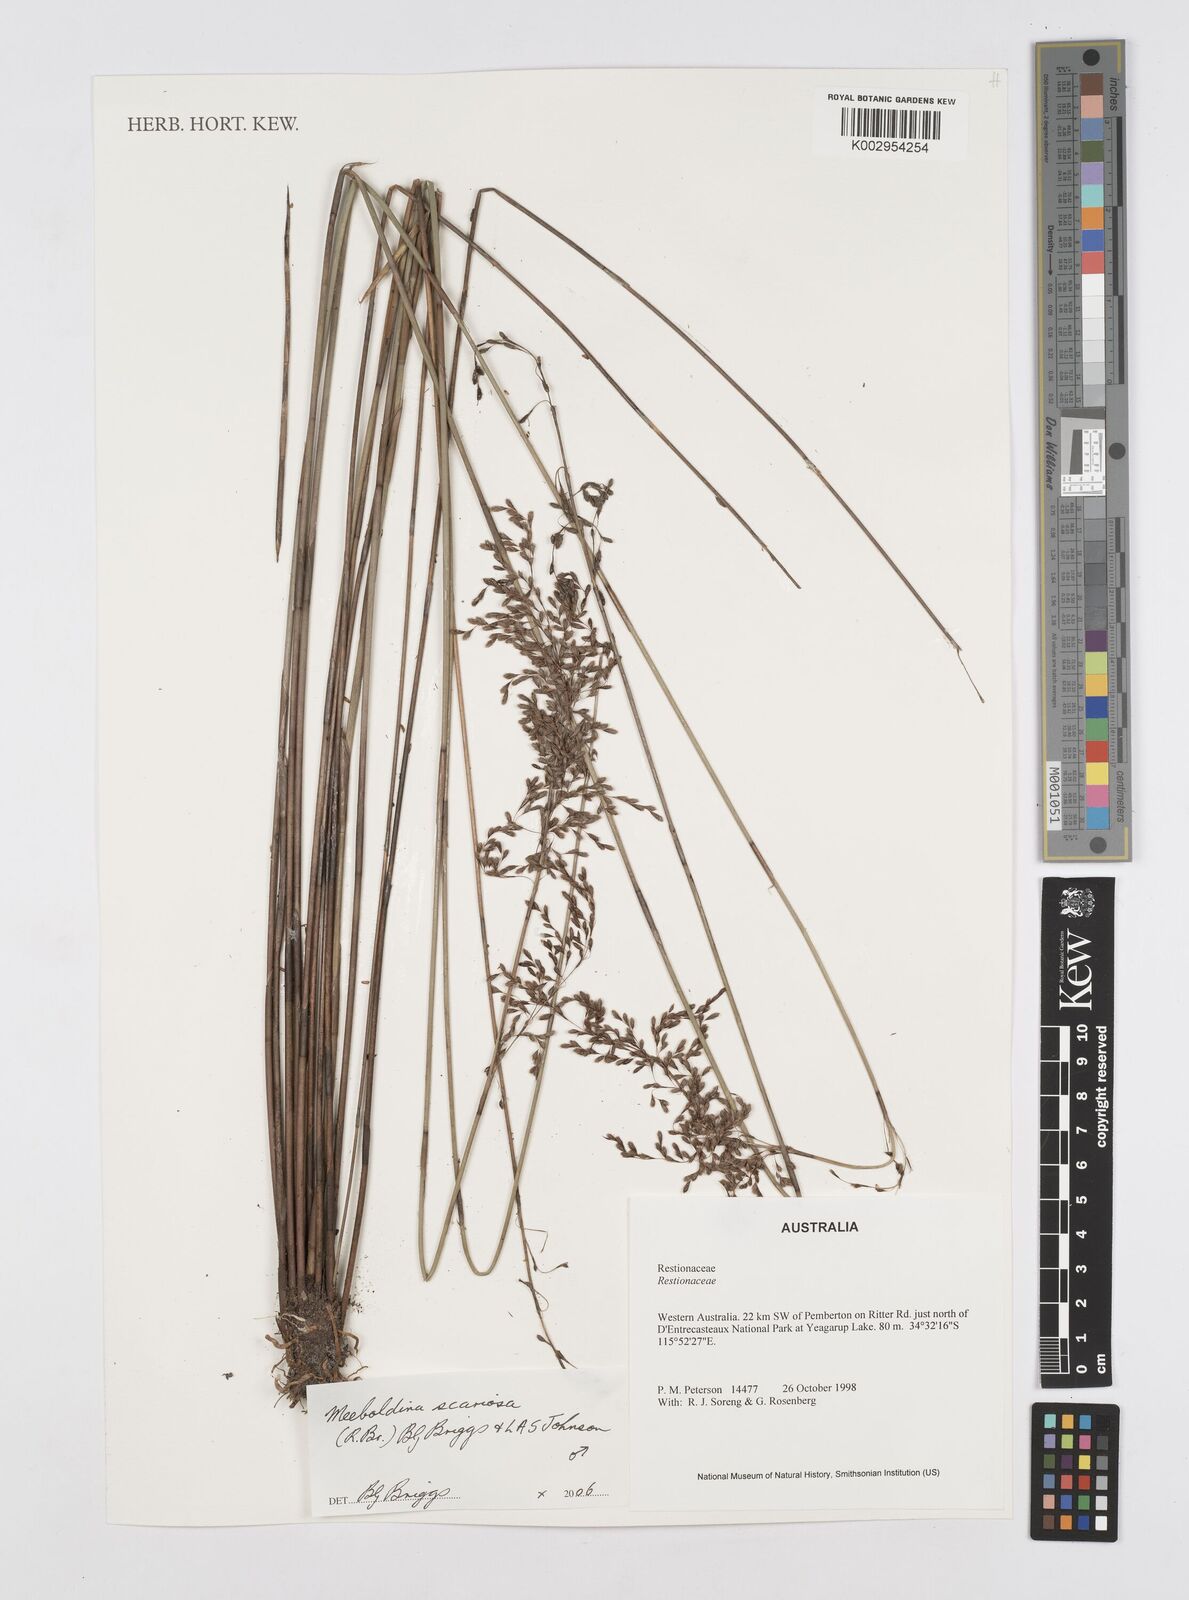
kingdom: Plantae
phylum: Tracheophyta
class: Liliopsida
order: Poales
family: Restionaceae
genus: Leptocarpus
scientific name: Leptocarpus scariosus
